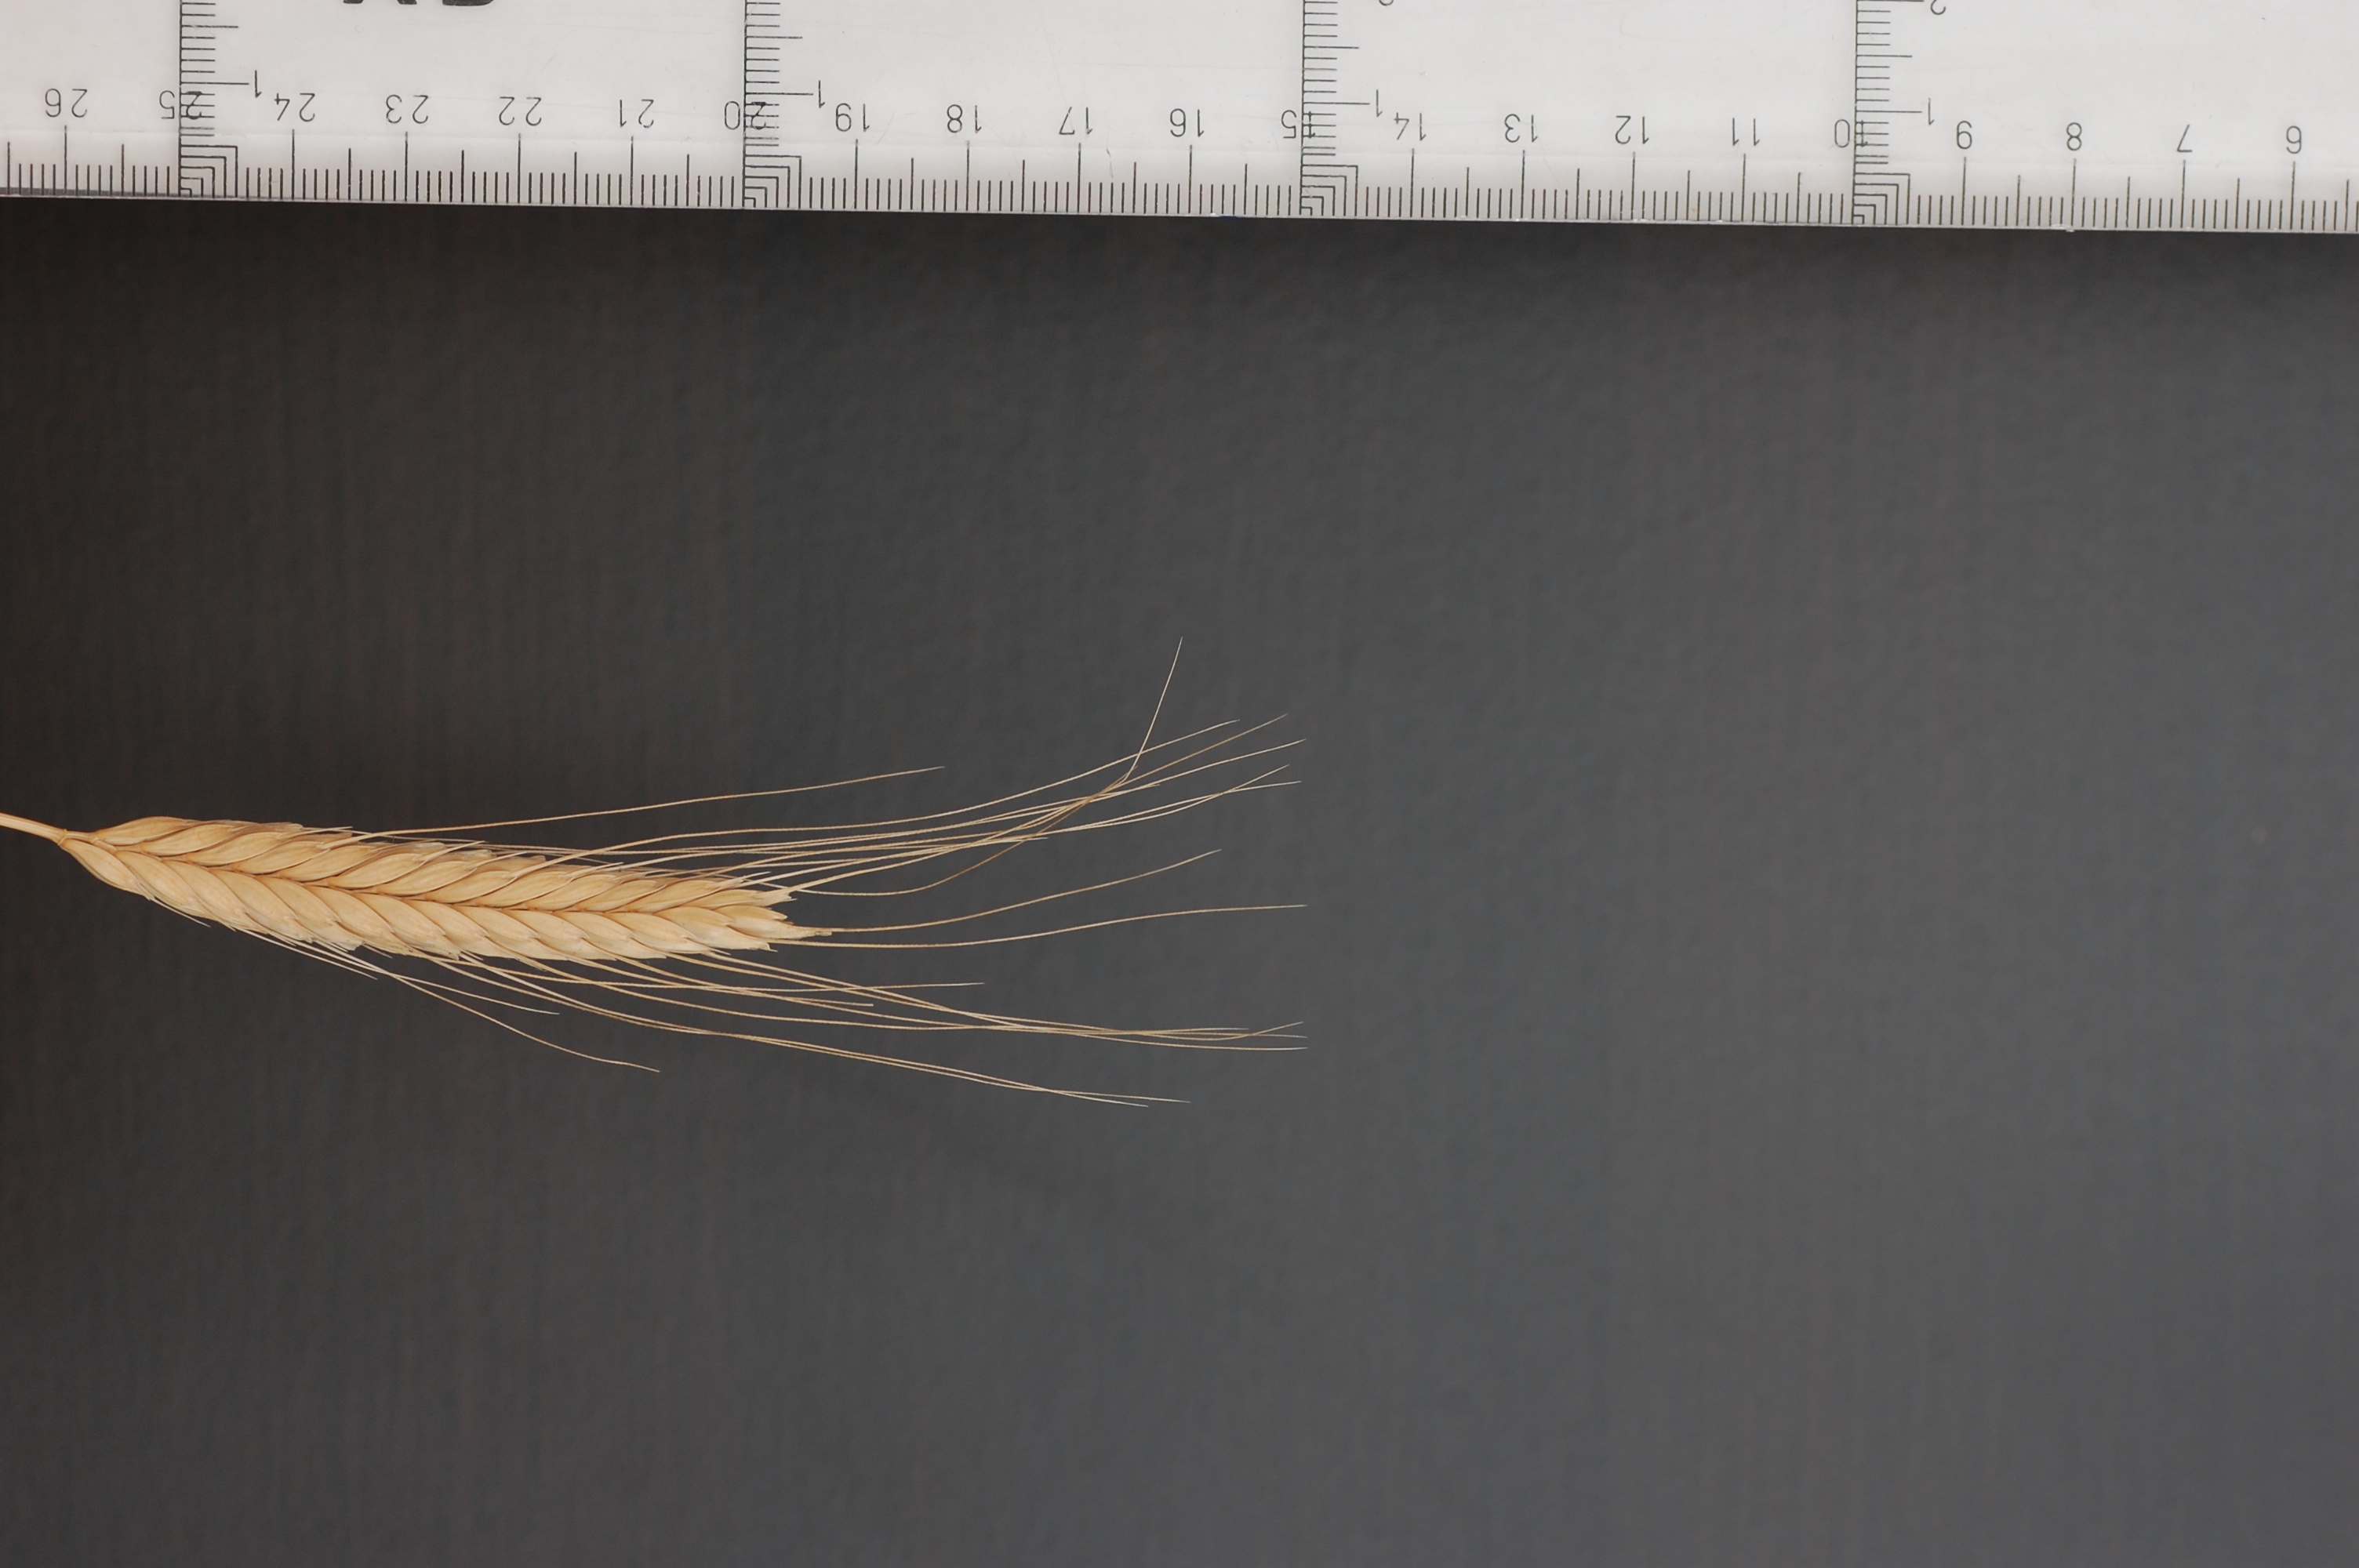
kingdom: Plantae
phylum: Tracheophyta
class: Liliopsida
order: Poales
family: Poaceae
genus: Triticum
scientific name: Triticum monococcum
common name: Einkorn
